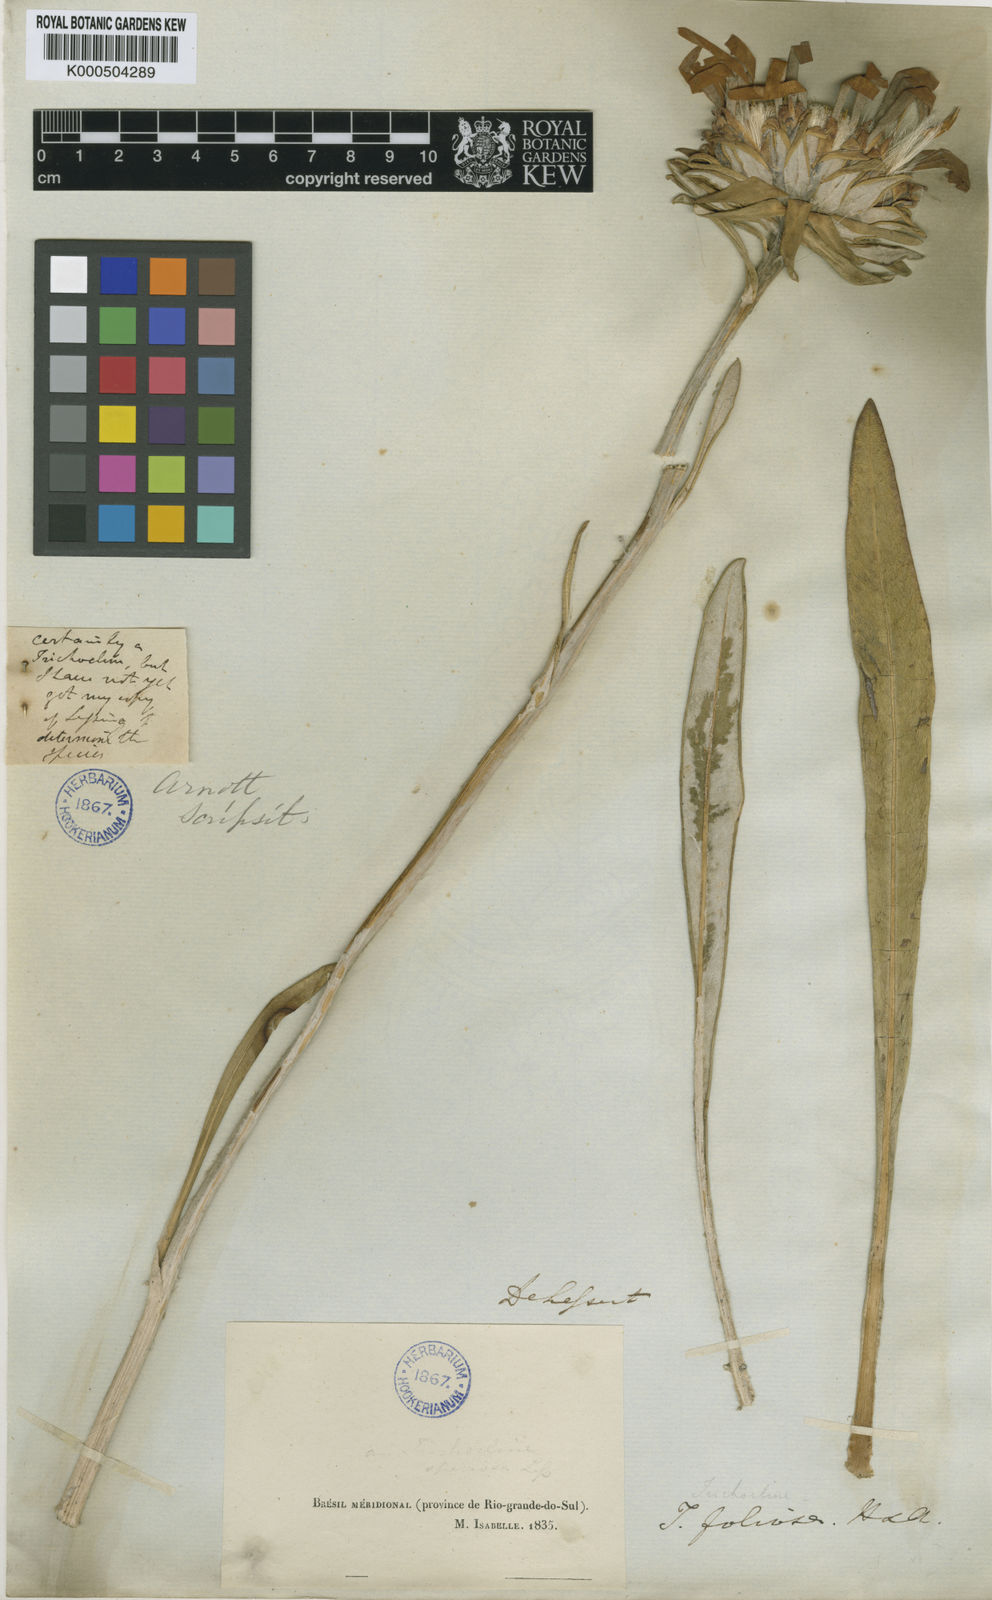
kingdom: Plantae
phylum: Tracheophyta
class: Magnoliopsida
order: Asterales
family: Asteraceae
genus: Trichocline
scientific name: Trichocline macrocephala
